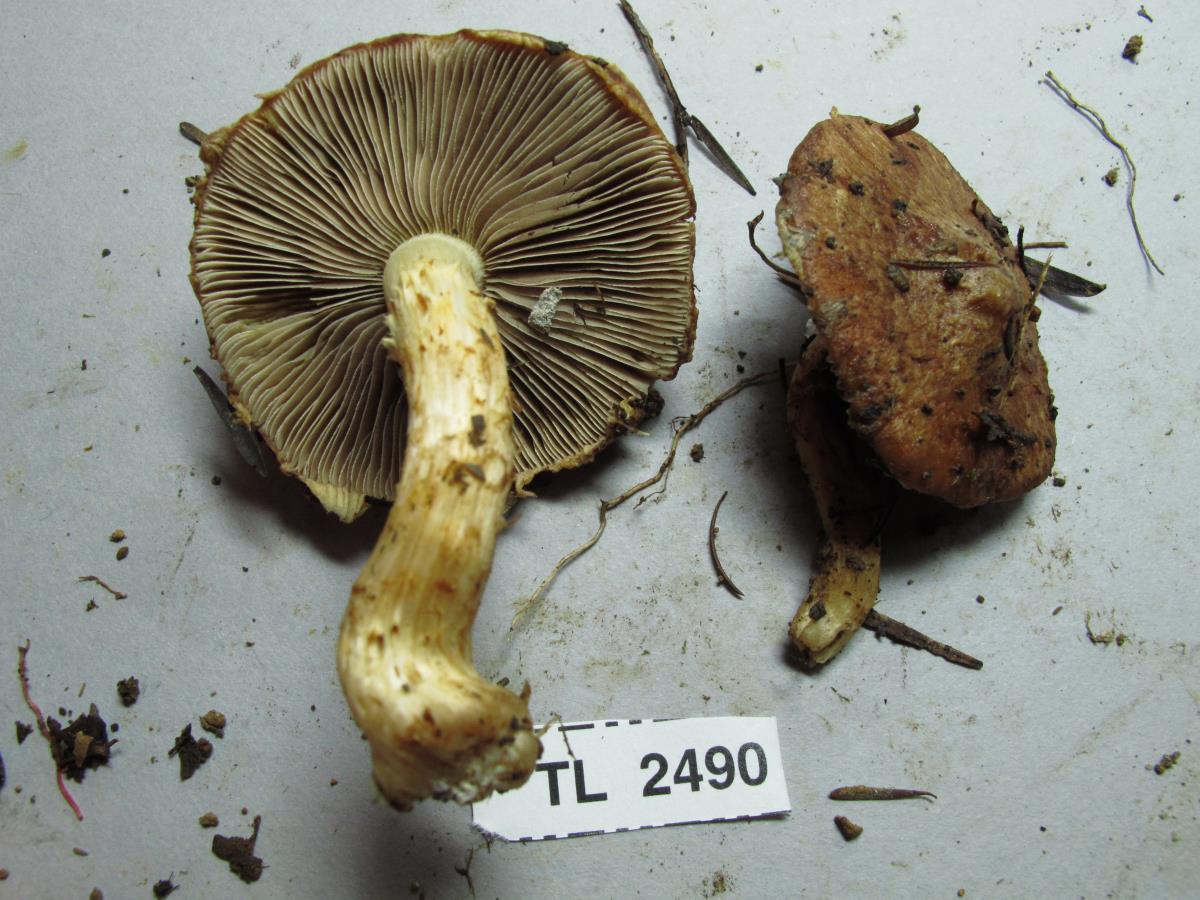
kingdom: Fungi
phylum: Basidiomycota
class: Agaricomycetes
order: Agaricales
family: Psathyrellaceae
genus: Psathyrella
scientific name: Psathyrella
